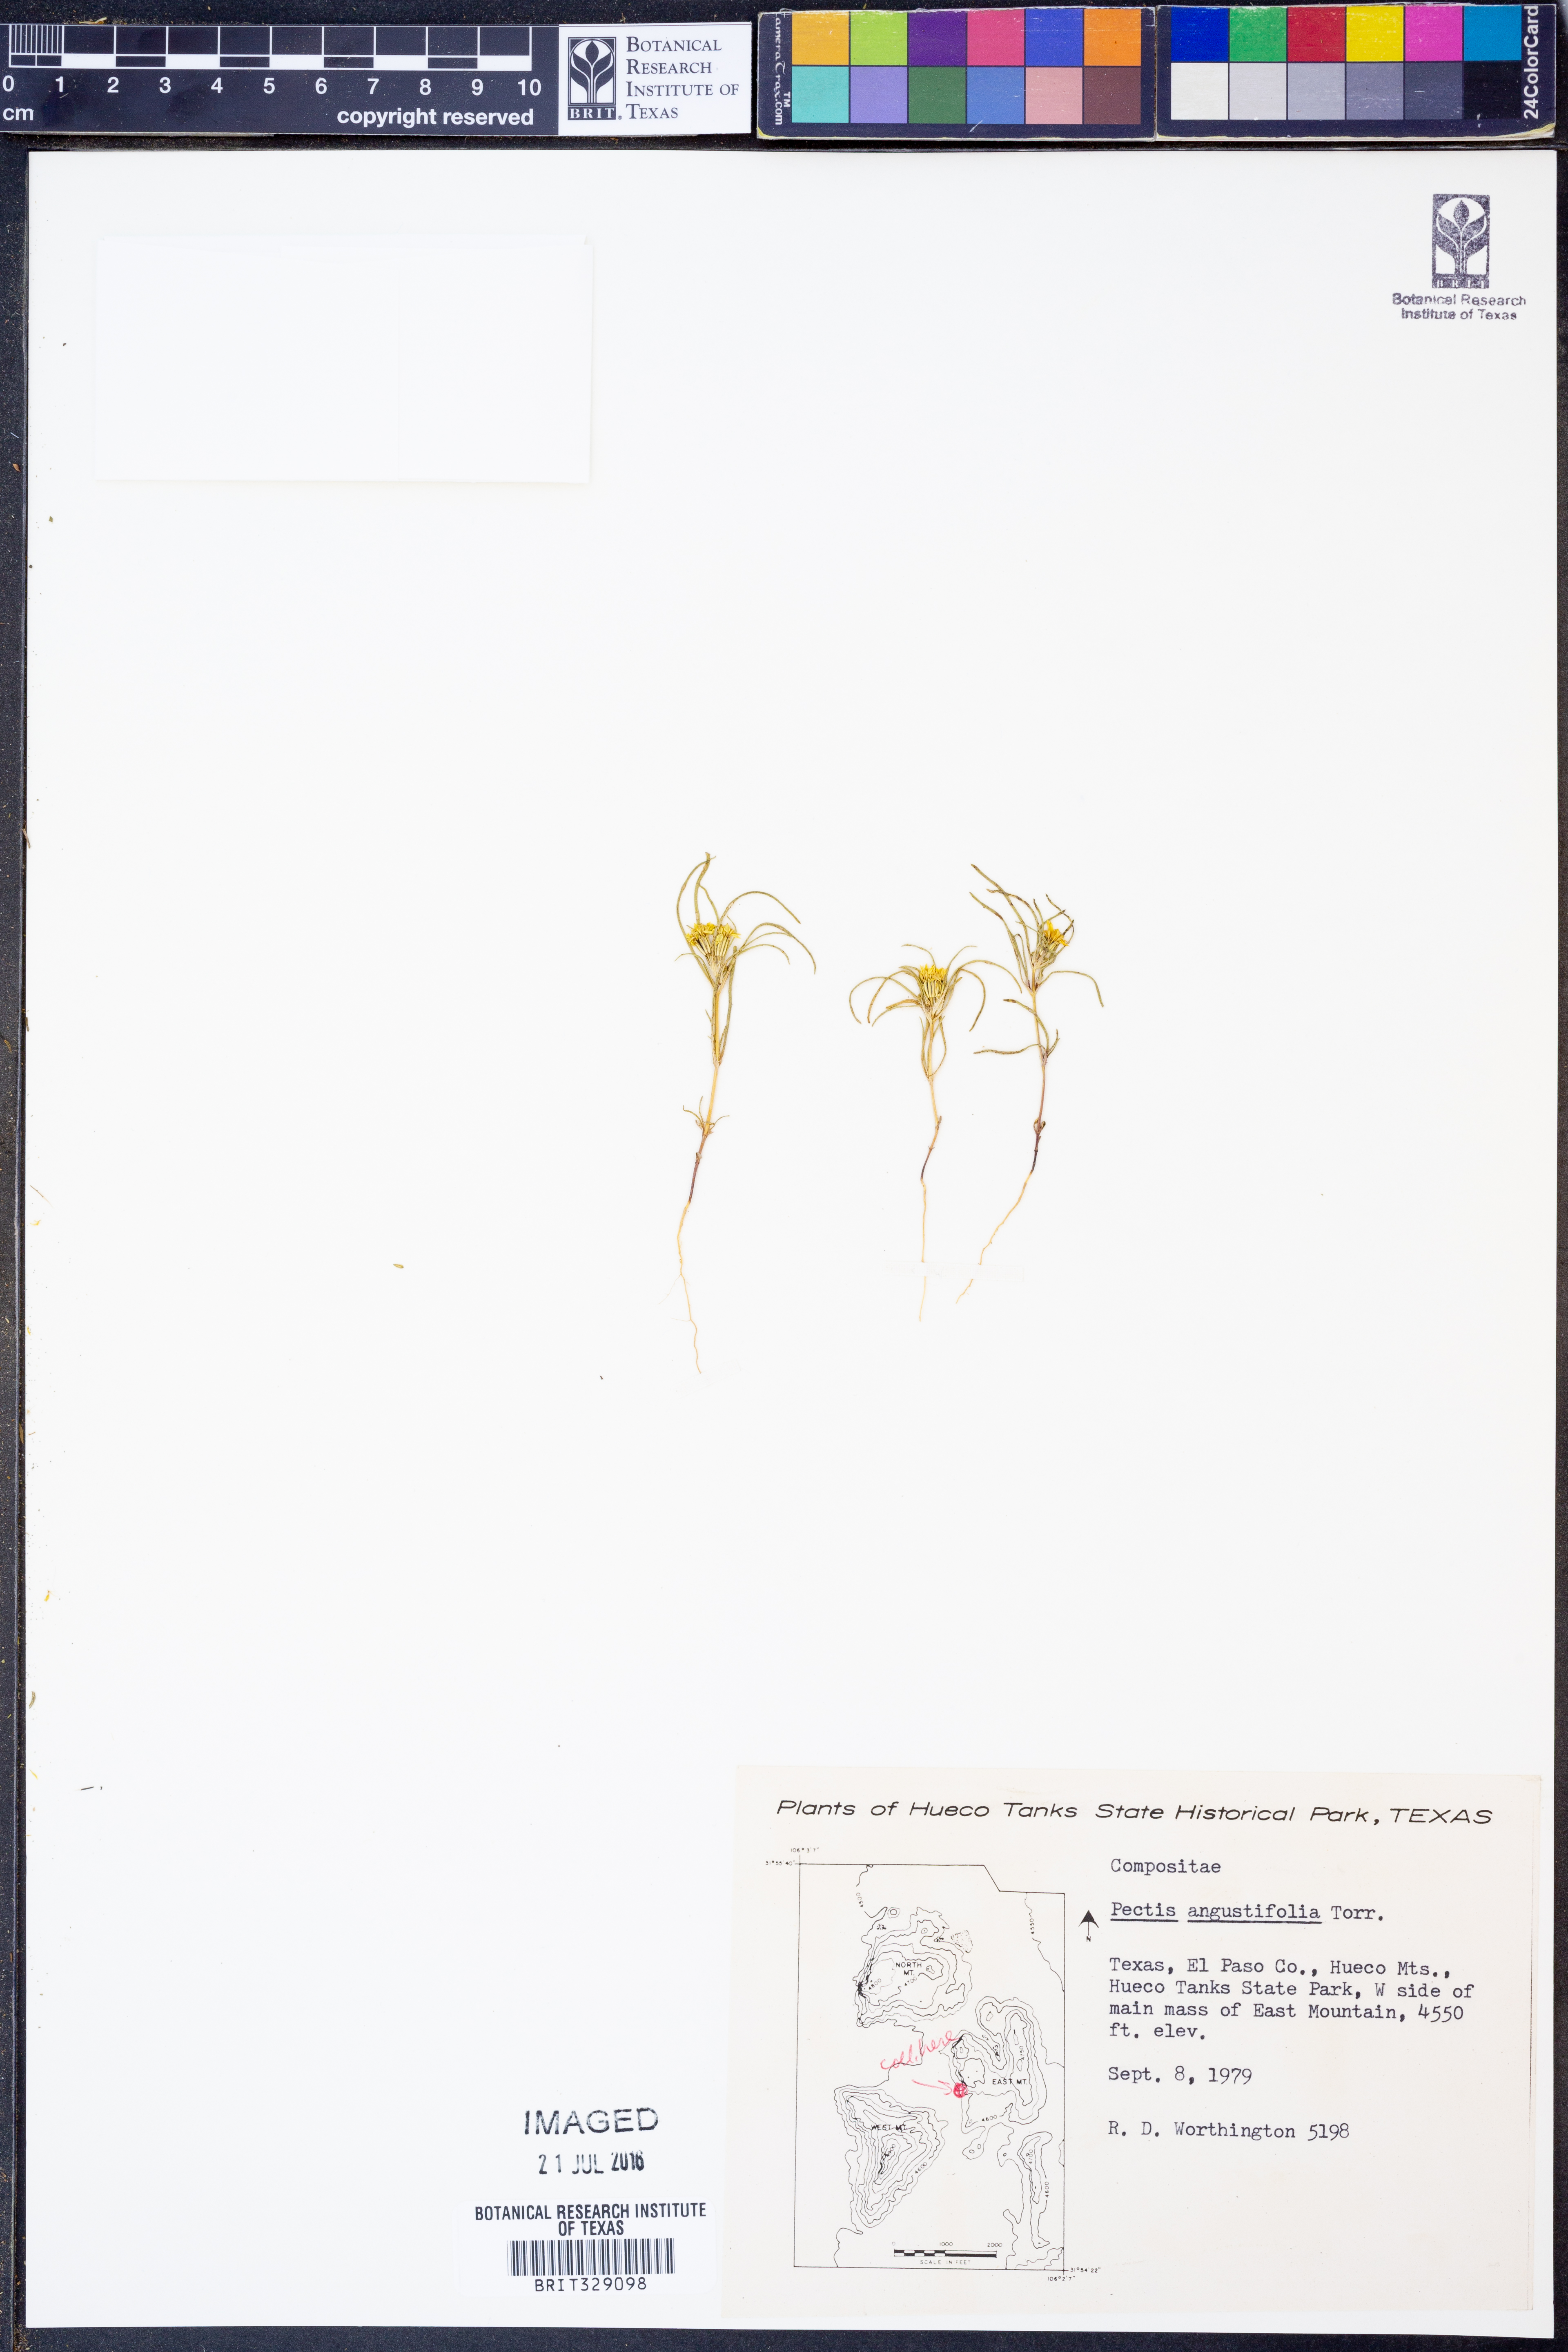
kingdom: Plantae
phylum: Tracheophyta
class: Magnoliopsida
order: Asterales
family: Asteraceae
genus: Pectis
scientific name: Pectis angustifolia
